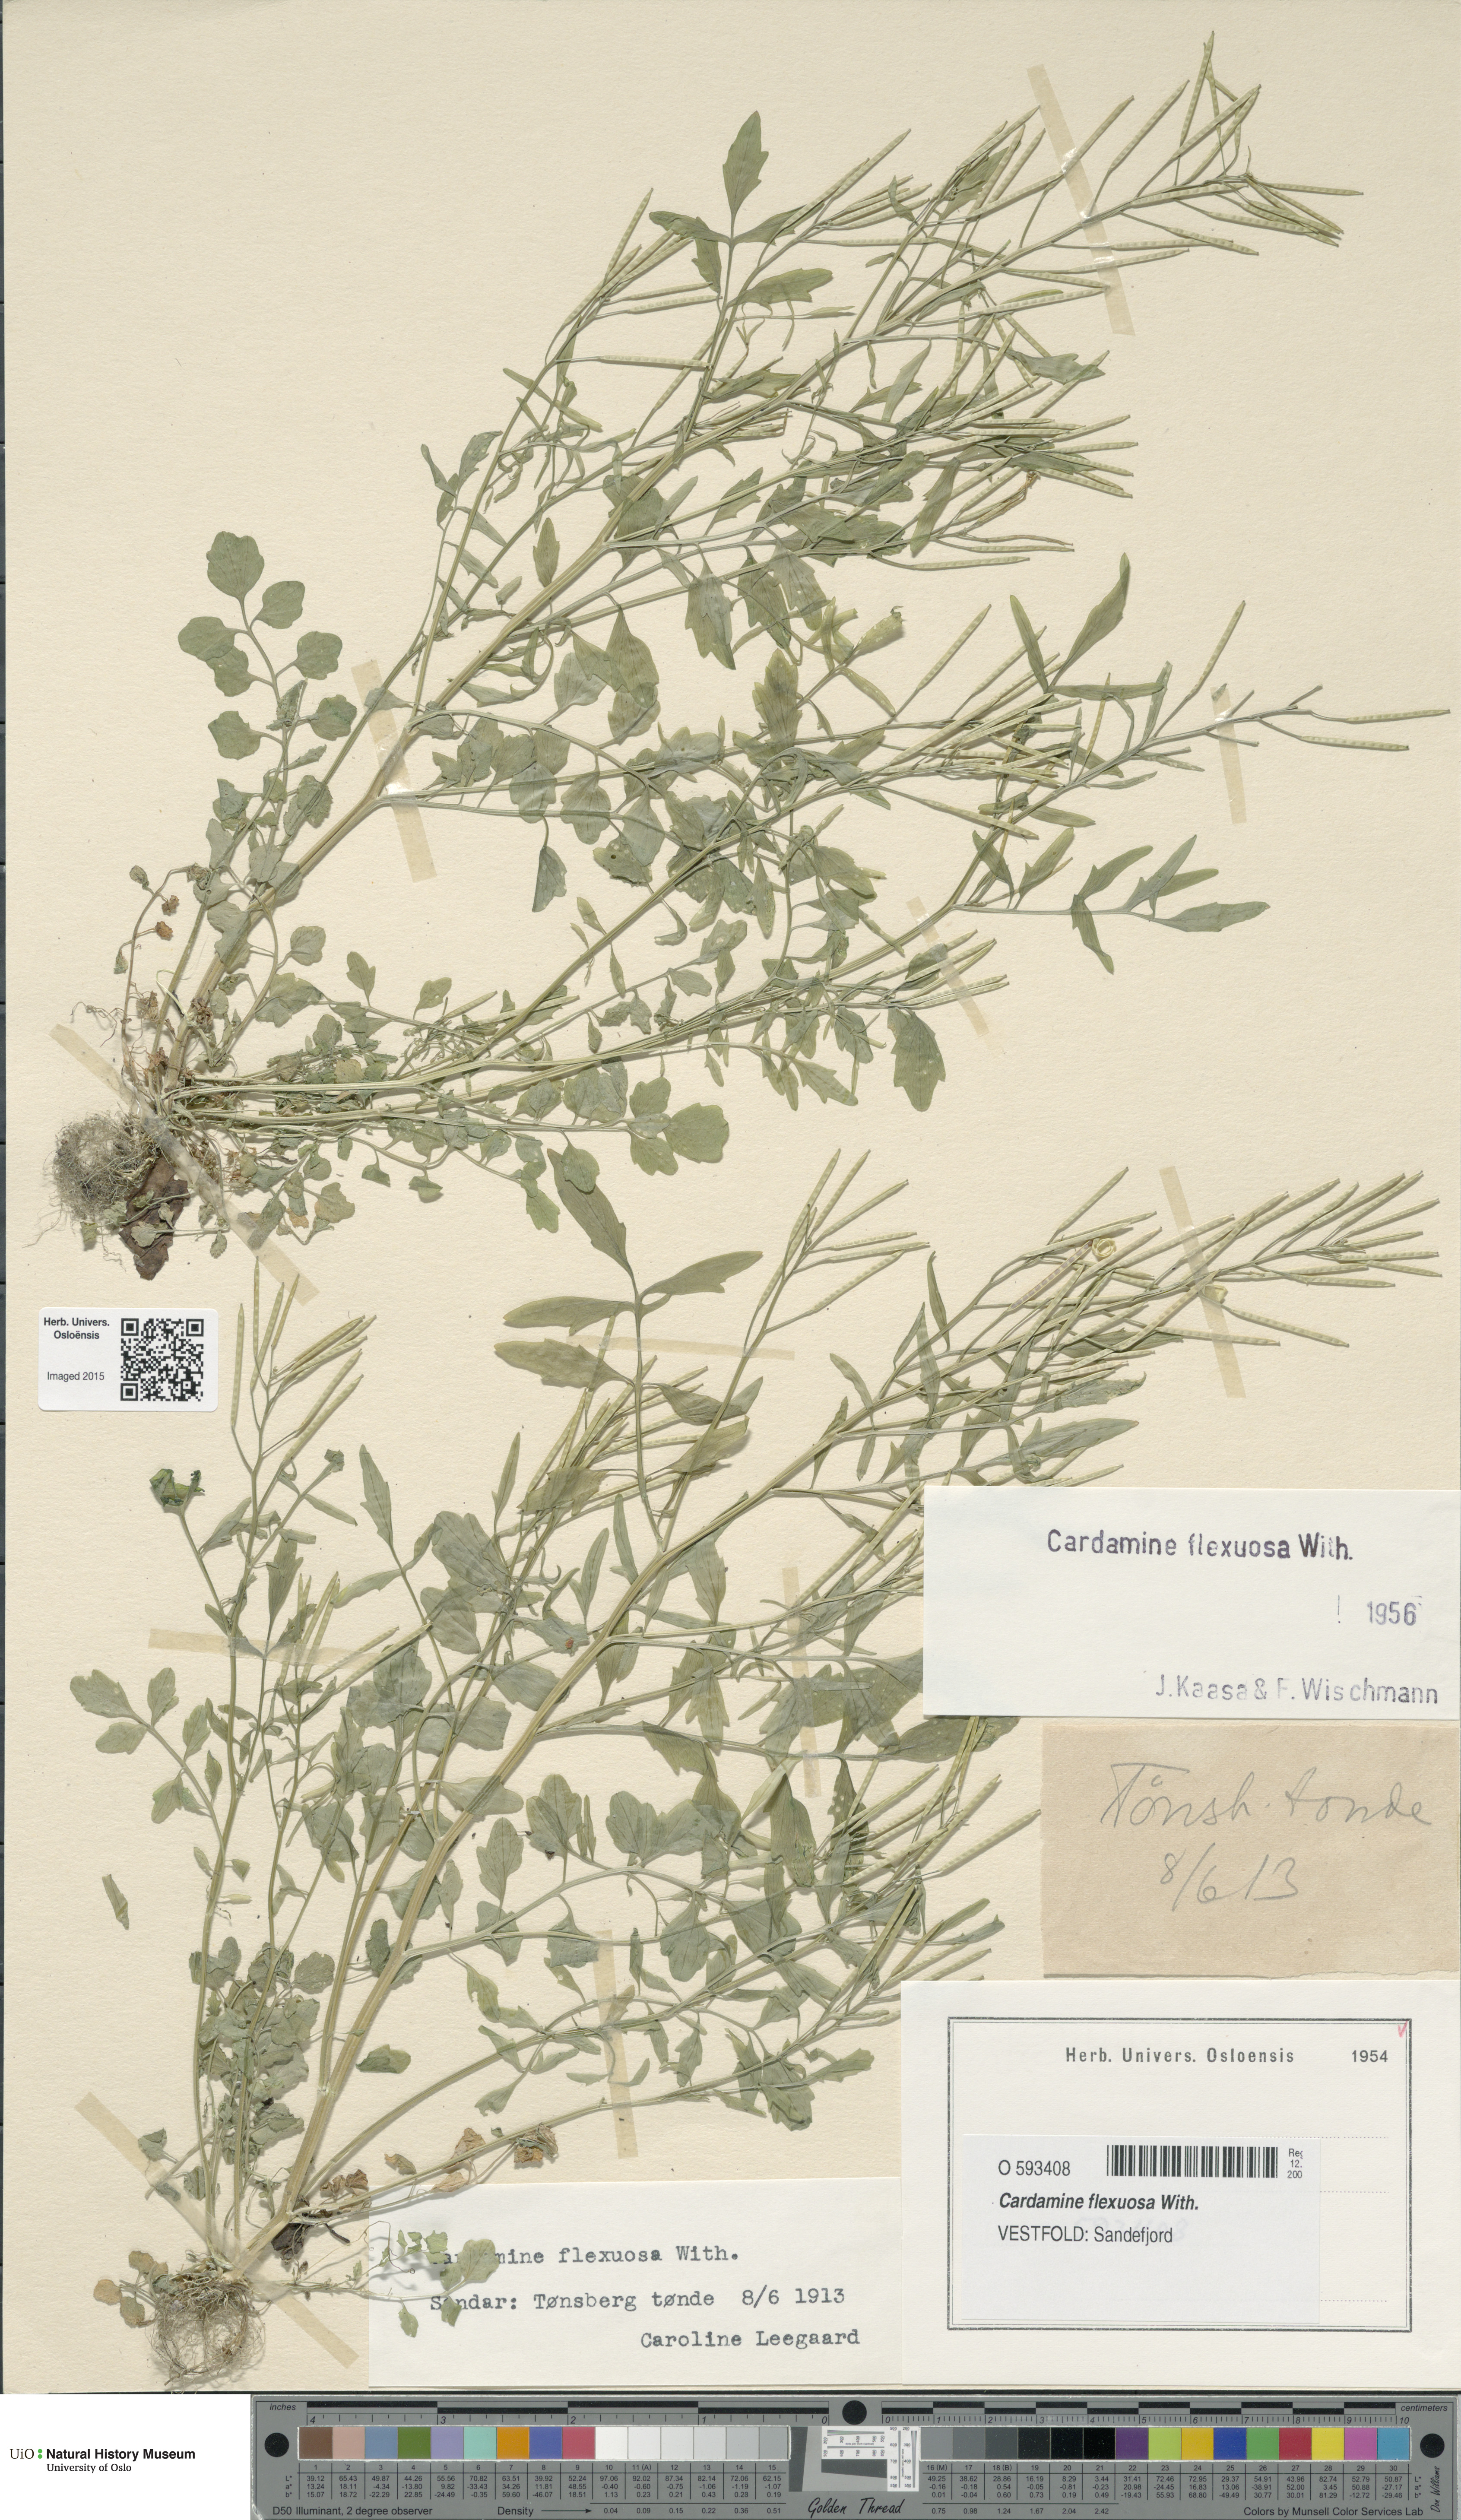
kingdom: Plantae
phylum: Tracheophyta
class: Magnoliopsida
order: Brassicales
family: Brassicaceae
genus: Cardamine
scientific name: Cardamine flexuosa
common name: Woodland bittercress
